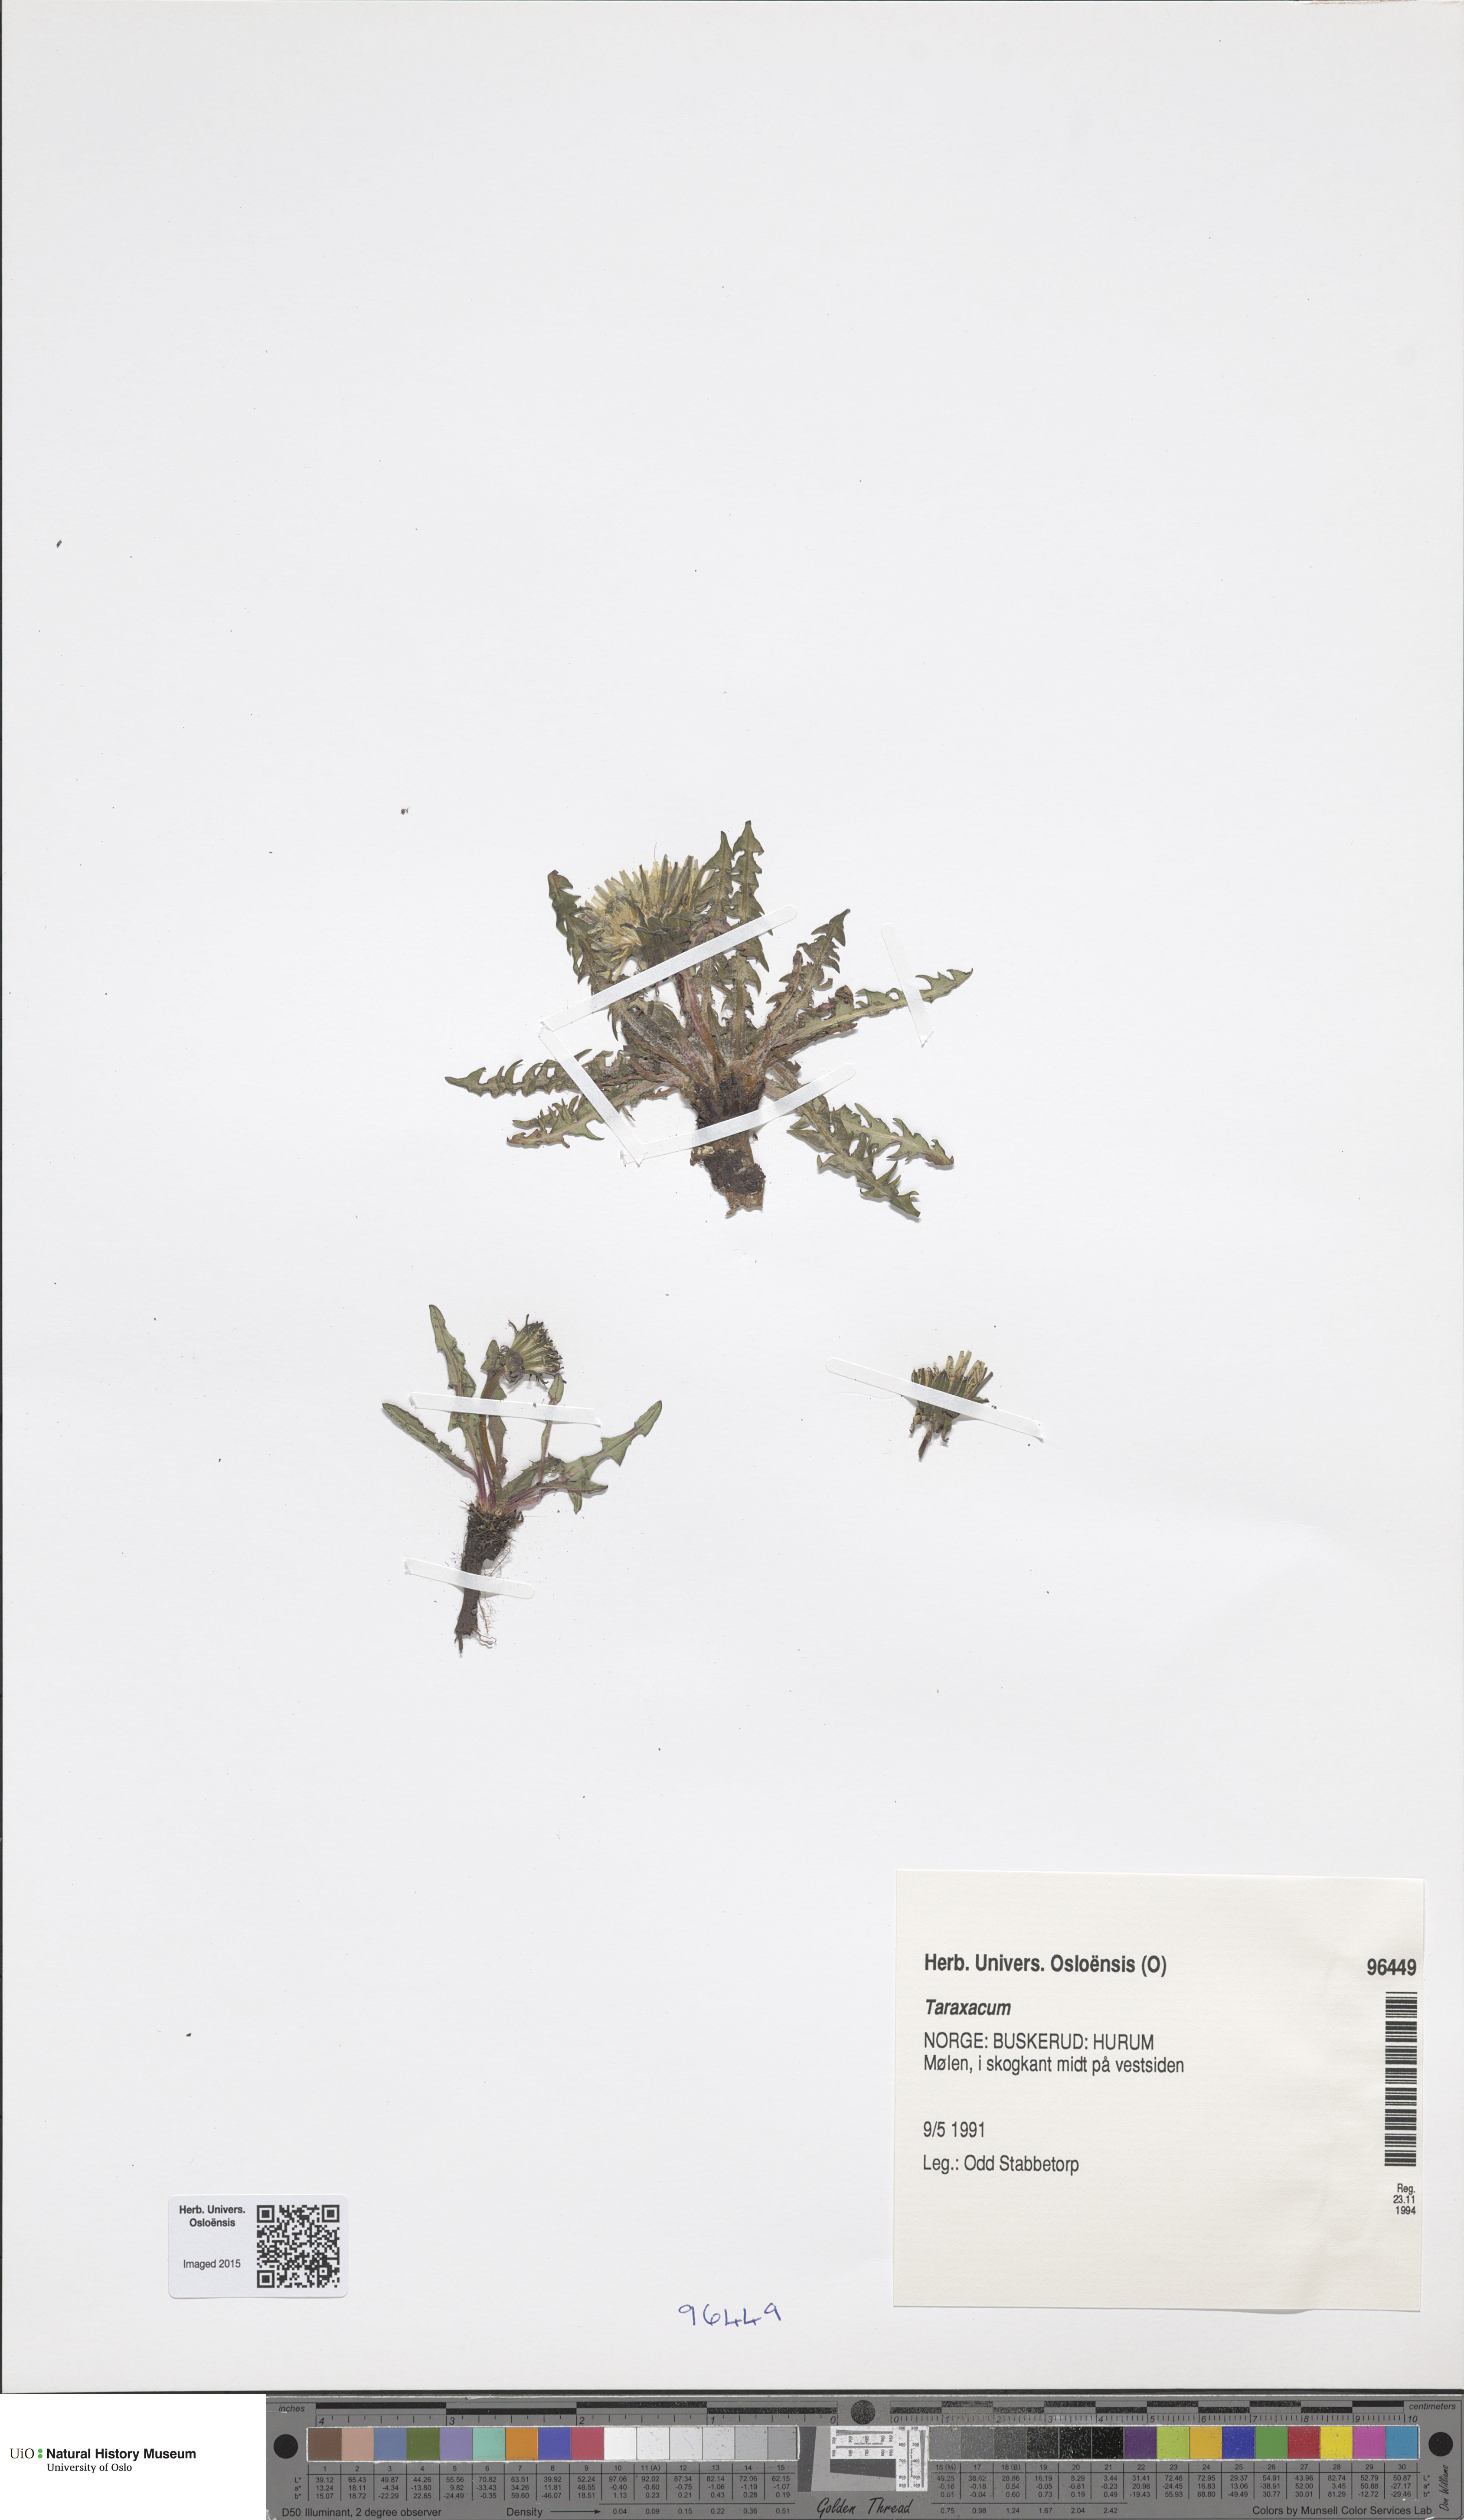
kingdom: Plantae
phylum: Tracheophyta
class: Magnoliopsida
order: Asterales
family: Asteraceae
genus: Taraxacum
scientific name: Taraxacum
